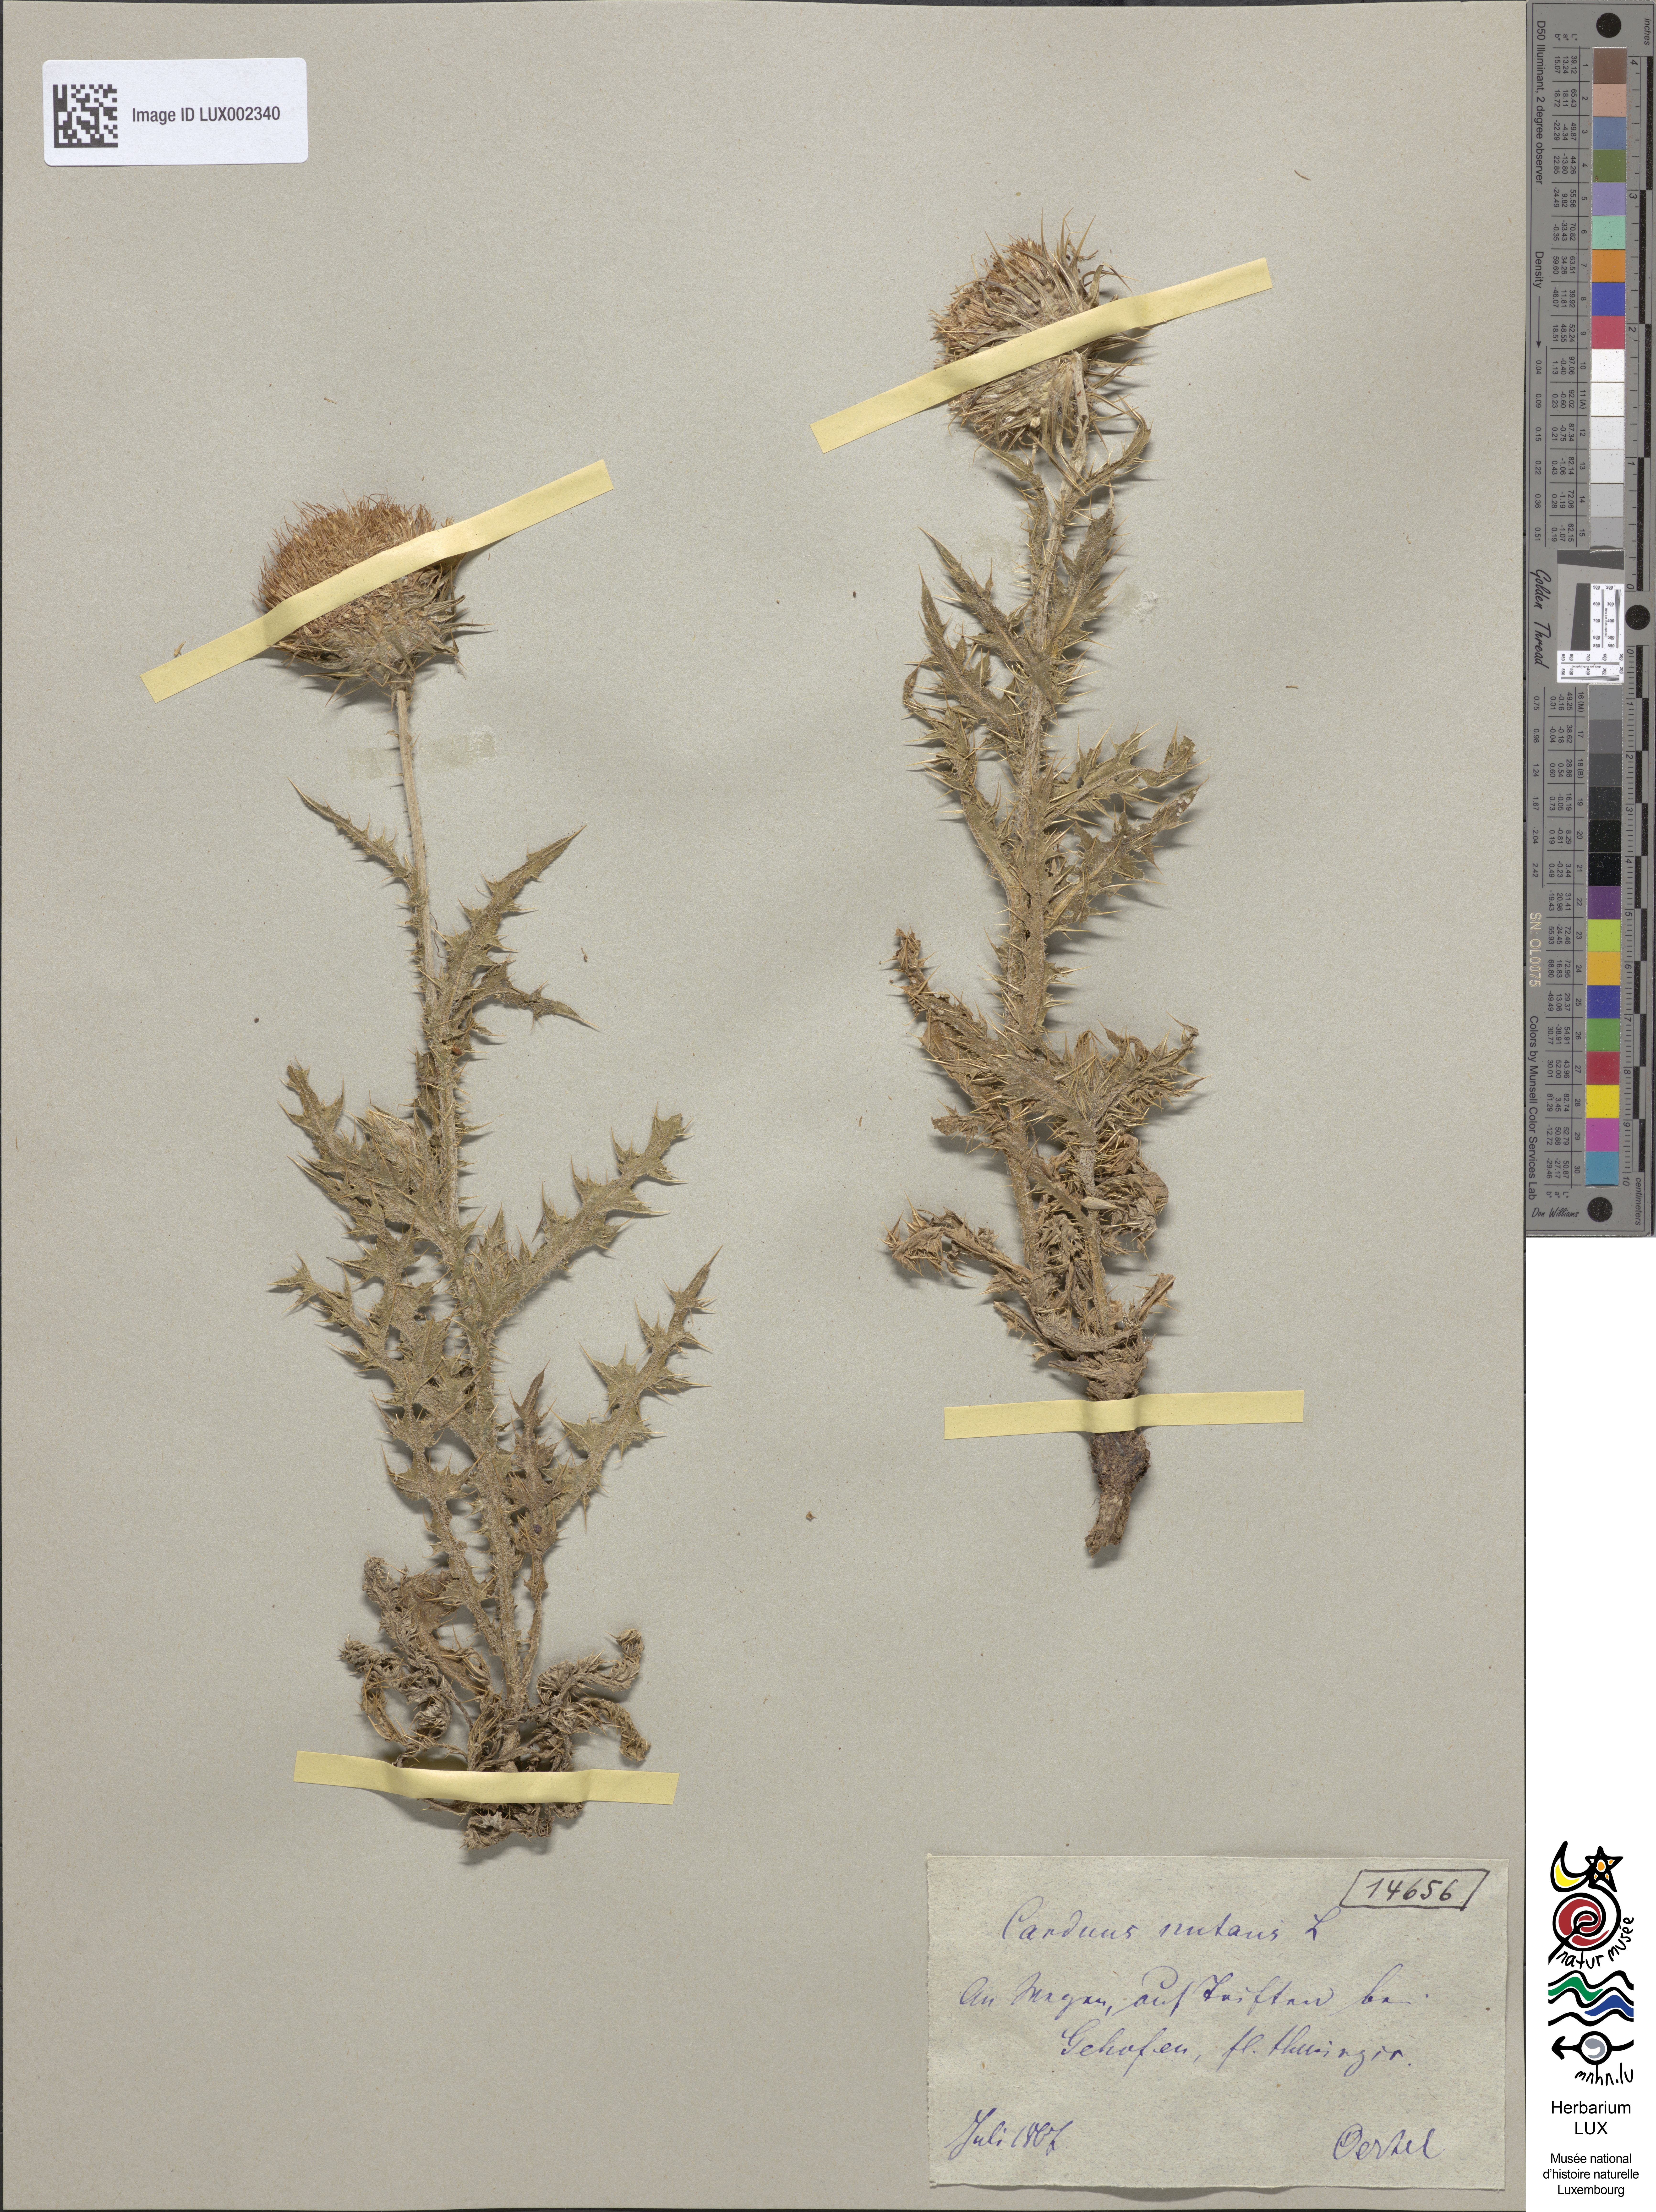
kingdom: Plantae
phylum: Tracheophyta
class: Magnoliopsida
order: Asterales
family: Asteraceae
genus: Carduus
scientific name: Carduus nutans
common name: Musk thistle
